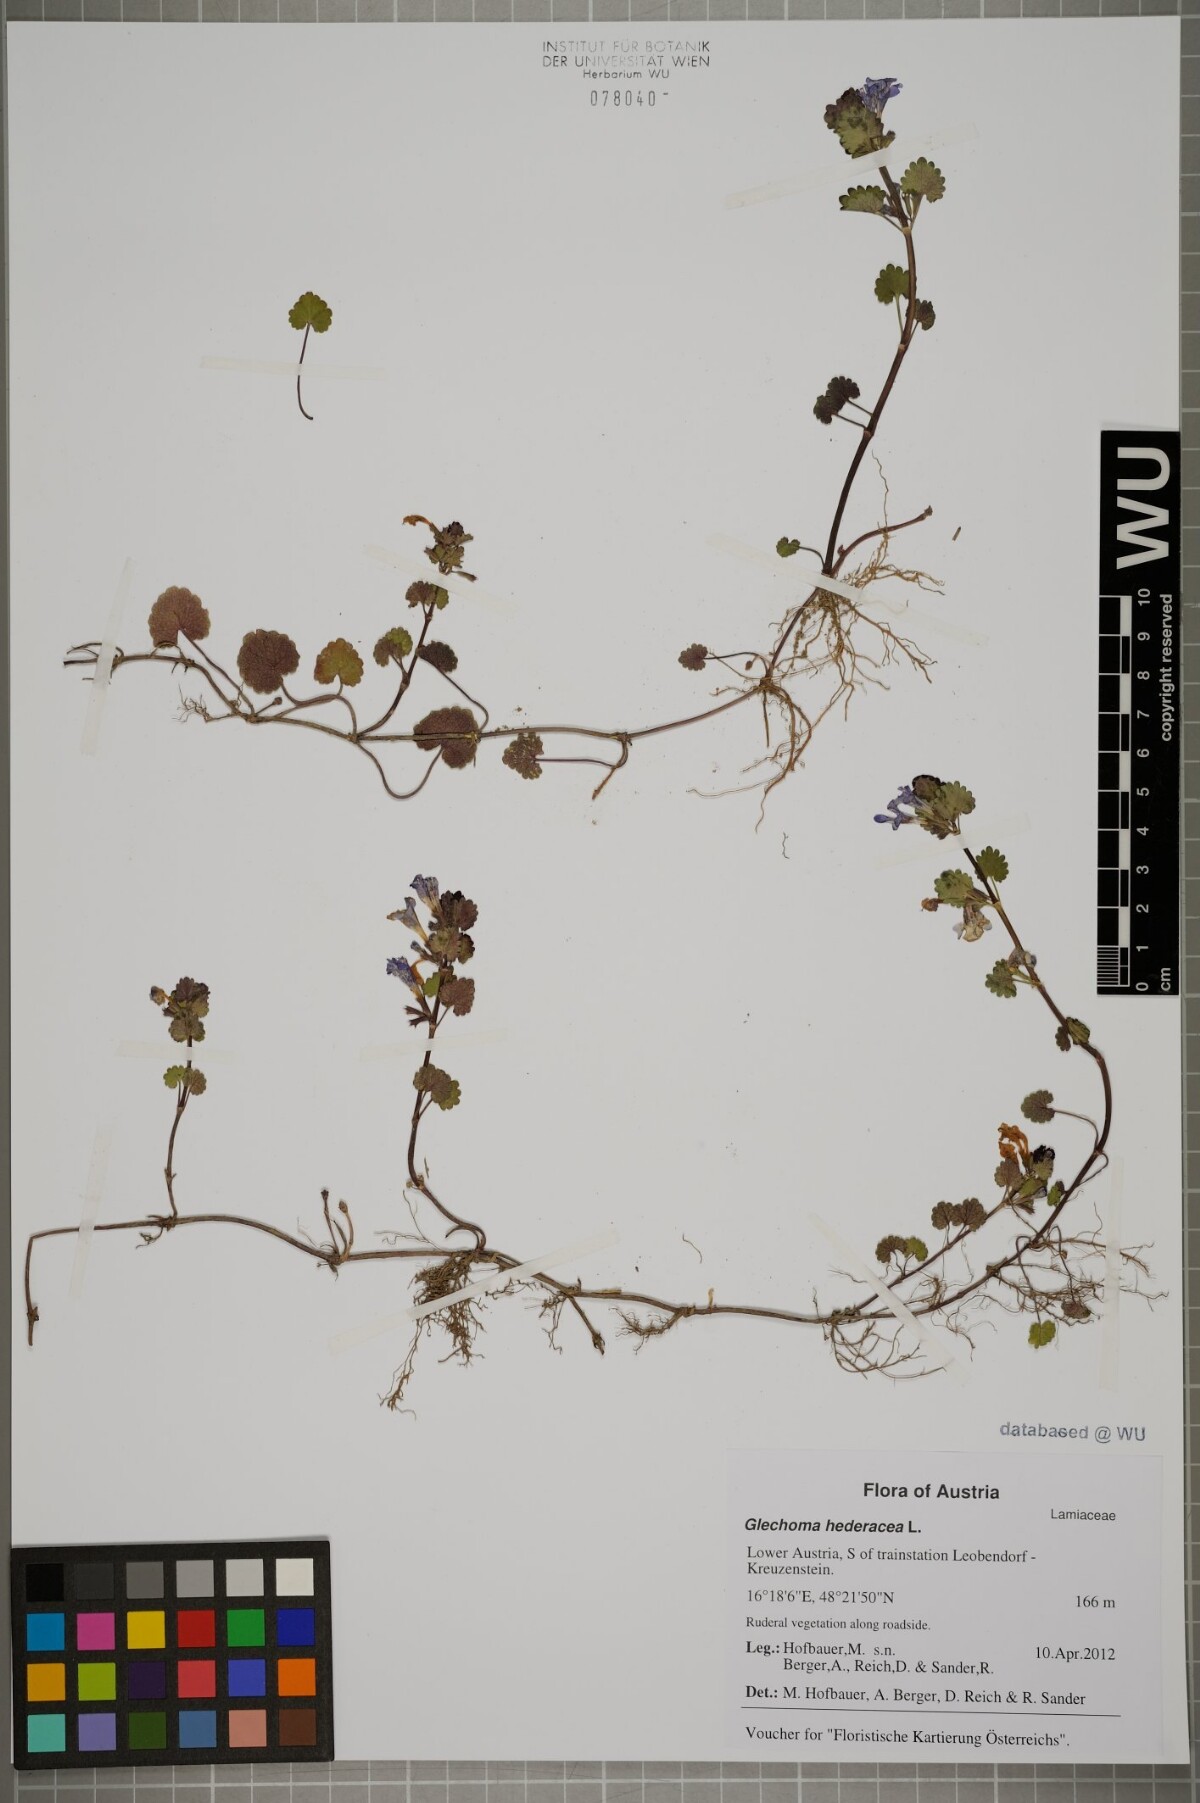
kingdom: Plantae
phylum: Tracheophyta
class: Magnoliopsida
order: Lamiales
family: Lamiaceae
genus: Glechoma
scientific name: Glechoma hederacea
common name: Ground ivy
